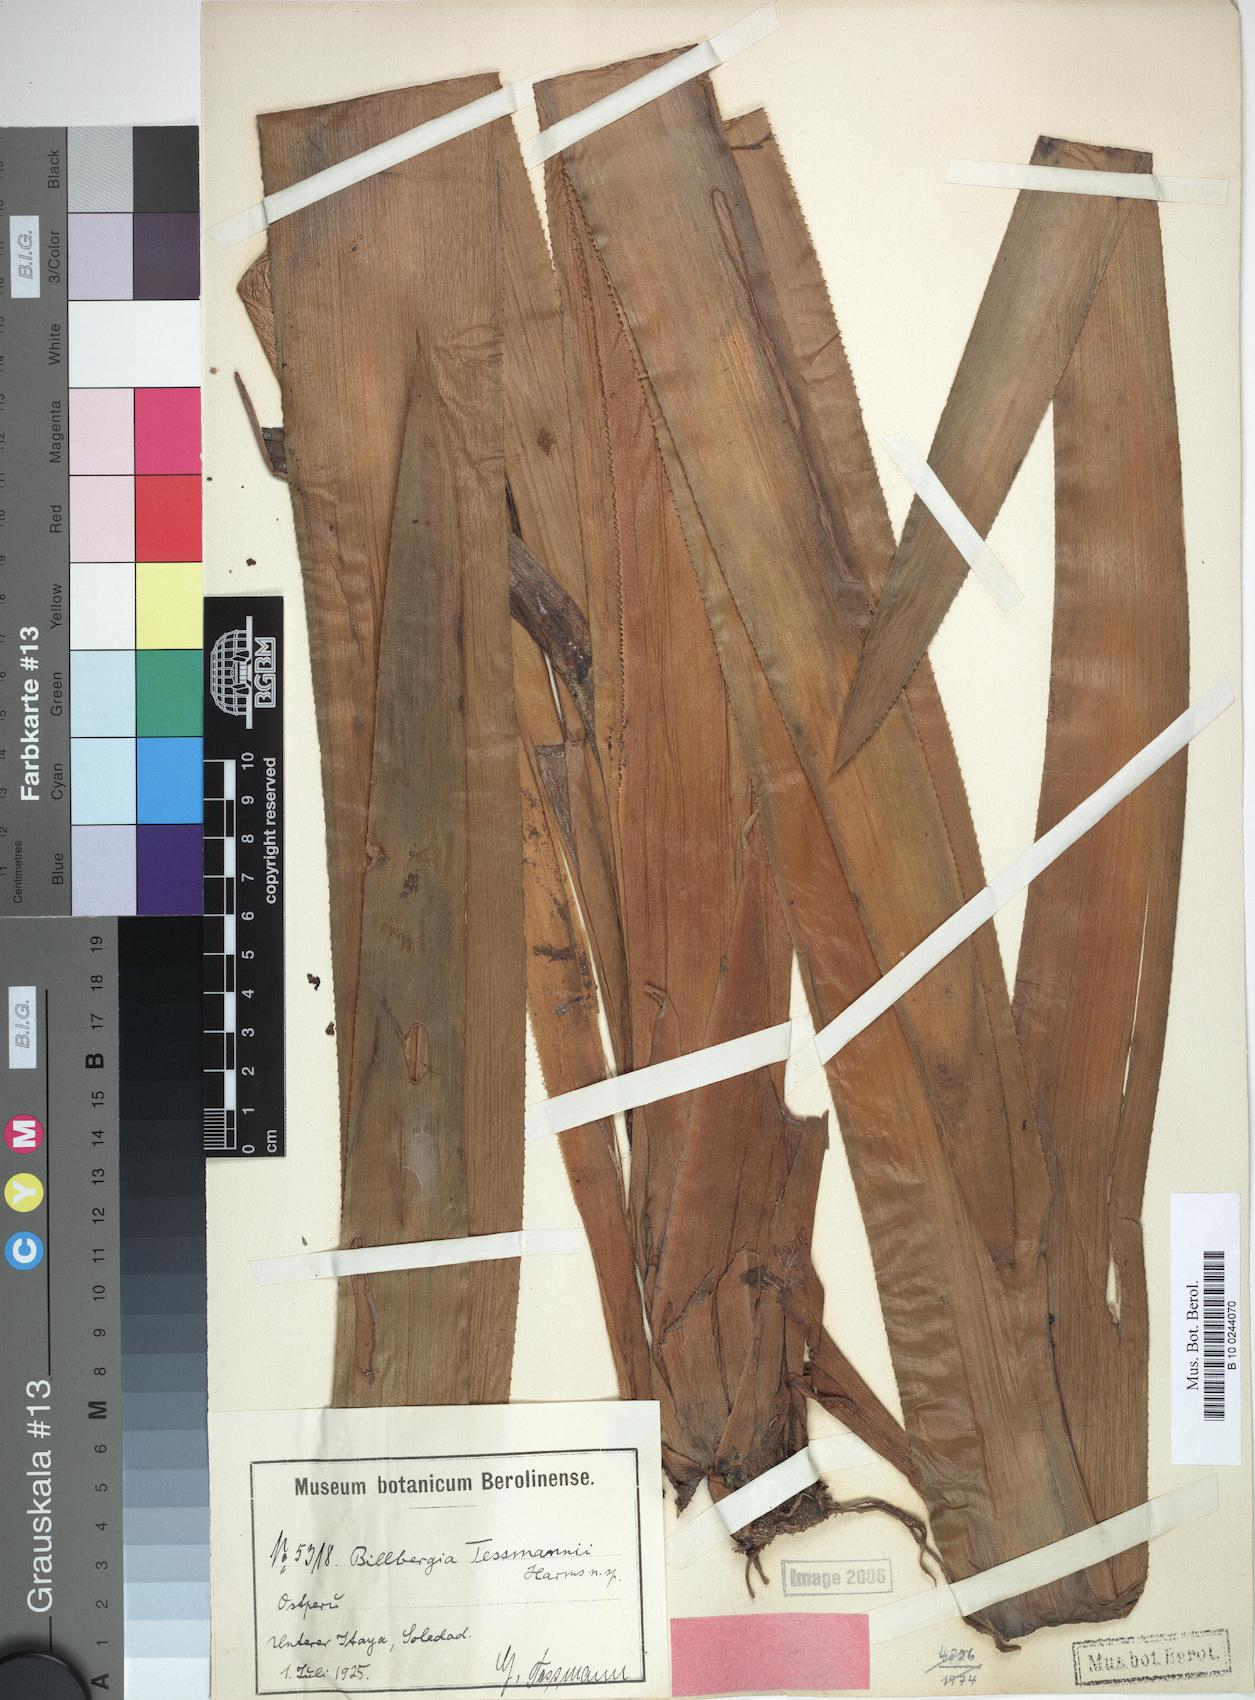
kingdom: Plantae
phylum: Tracheophyta
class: Liliopsida
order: Poales
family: Bromeliaceae
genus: Billbergia
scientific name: Billbergia tessmannii
